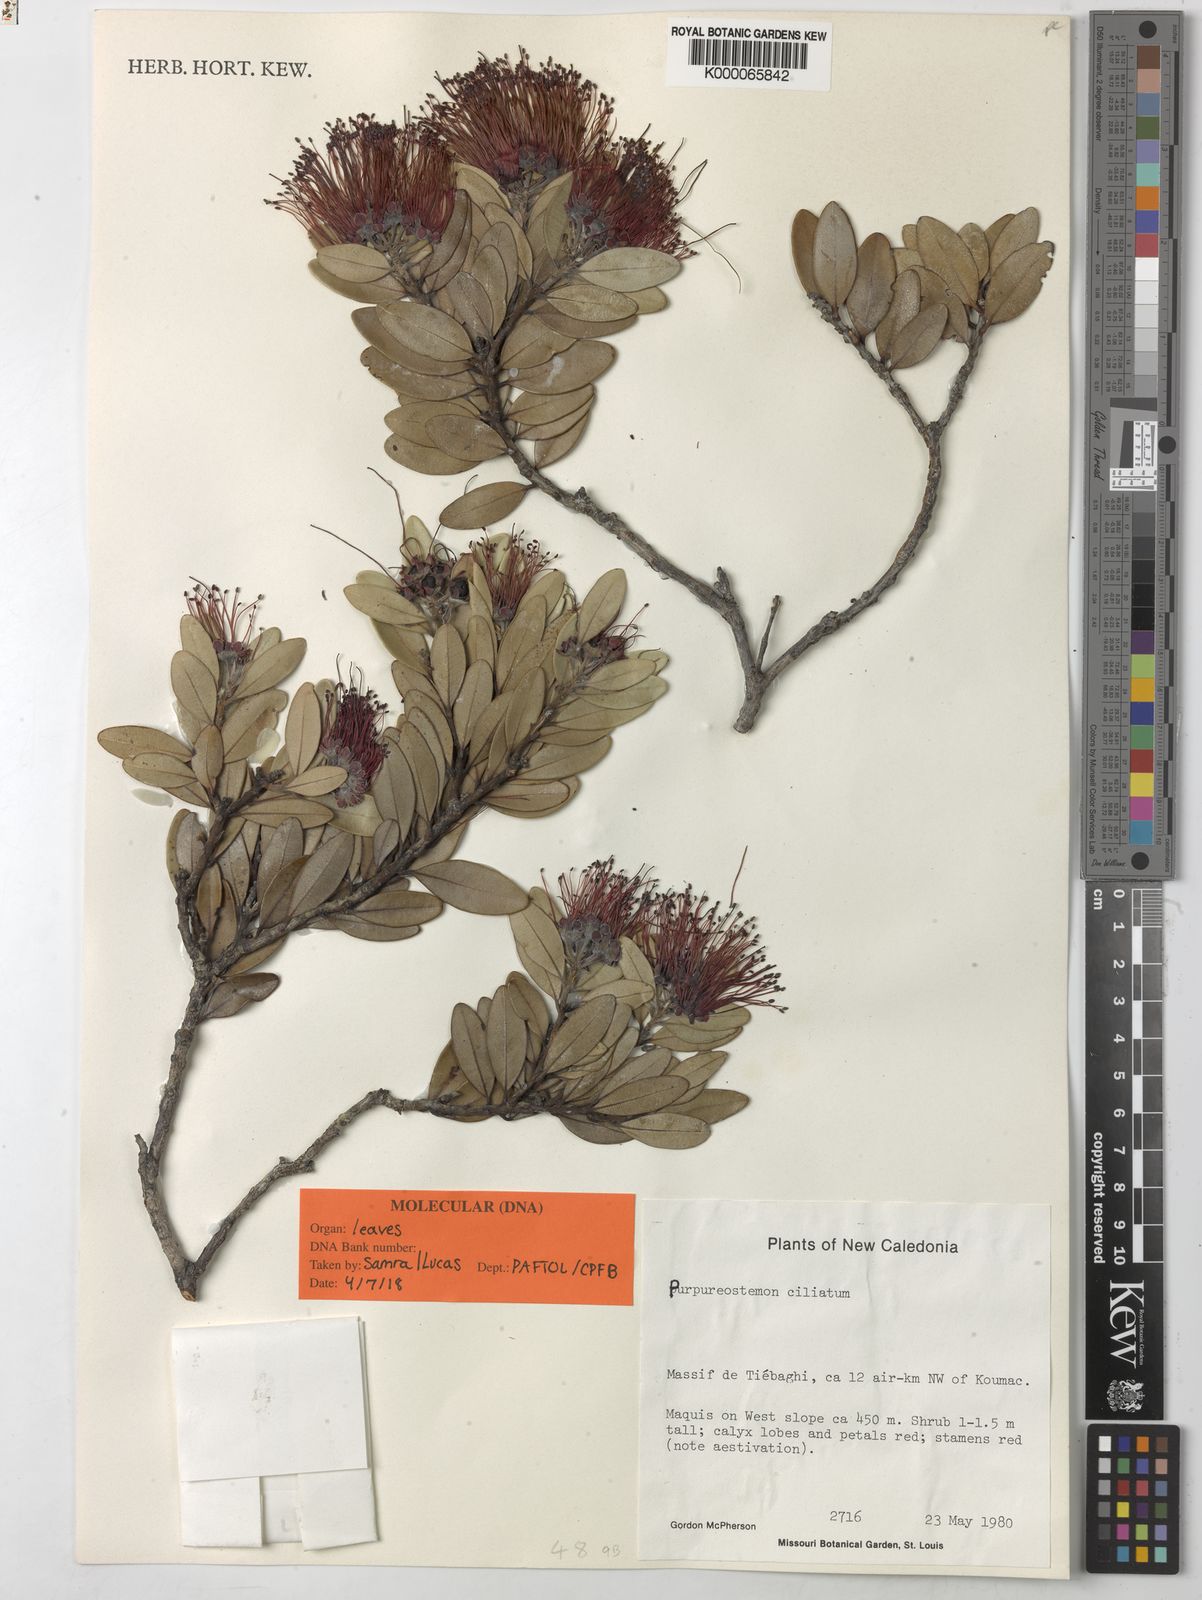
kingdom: Plantae
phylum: Tracheophyta
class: Magnoliopsida
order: Myrtales
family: Myrtaceae
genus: Purpureostemon
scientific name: Purpureostemon ciliatus
